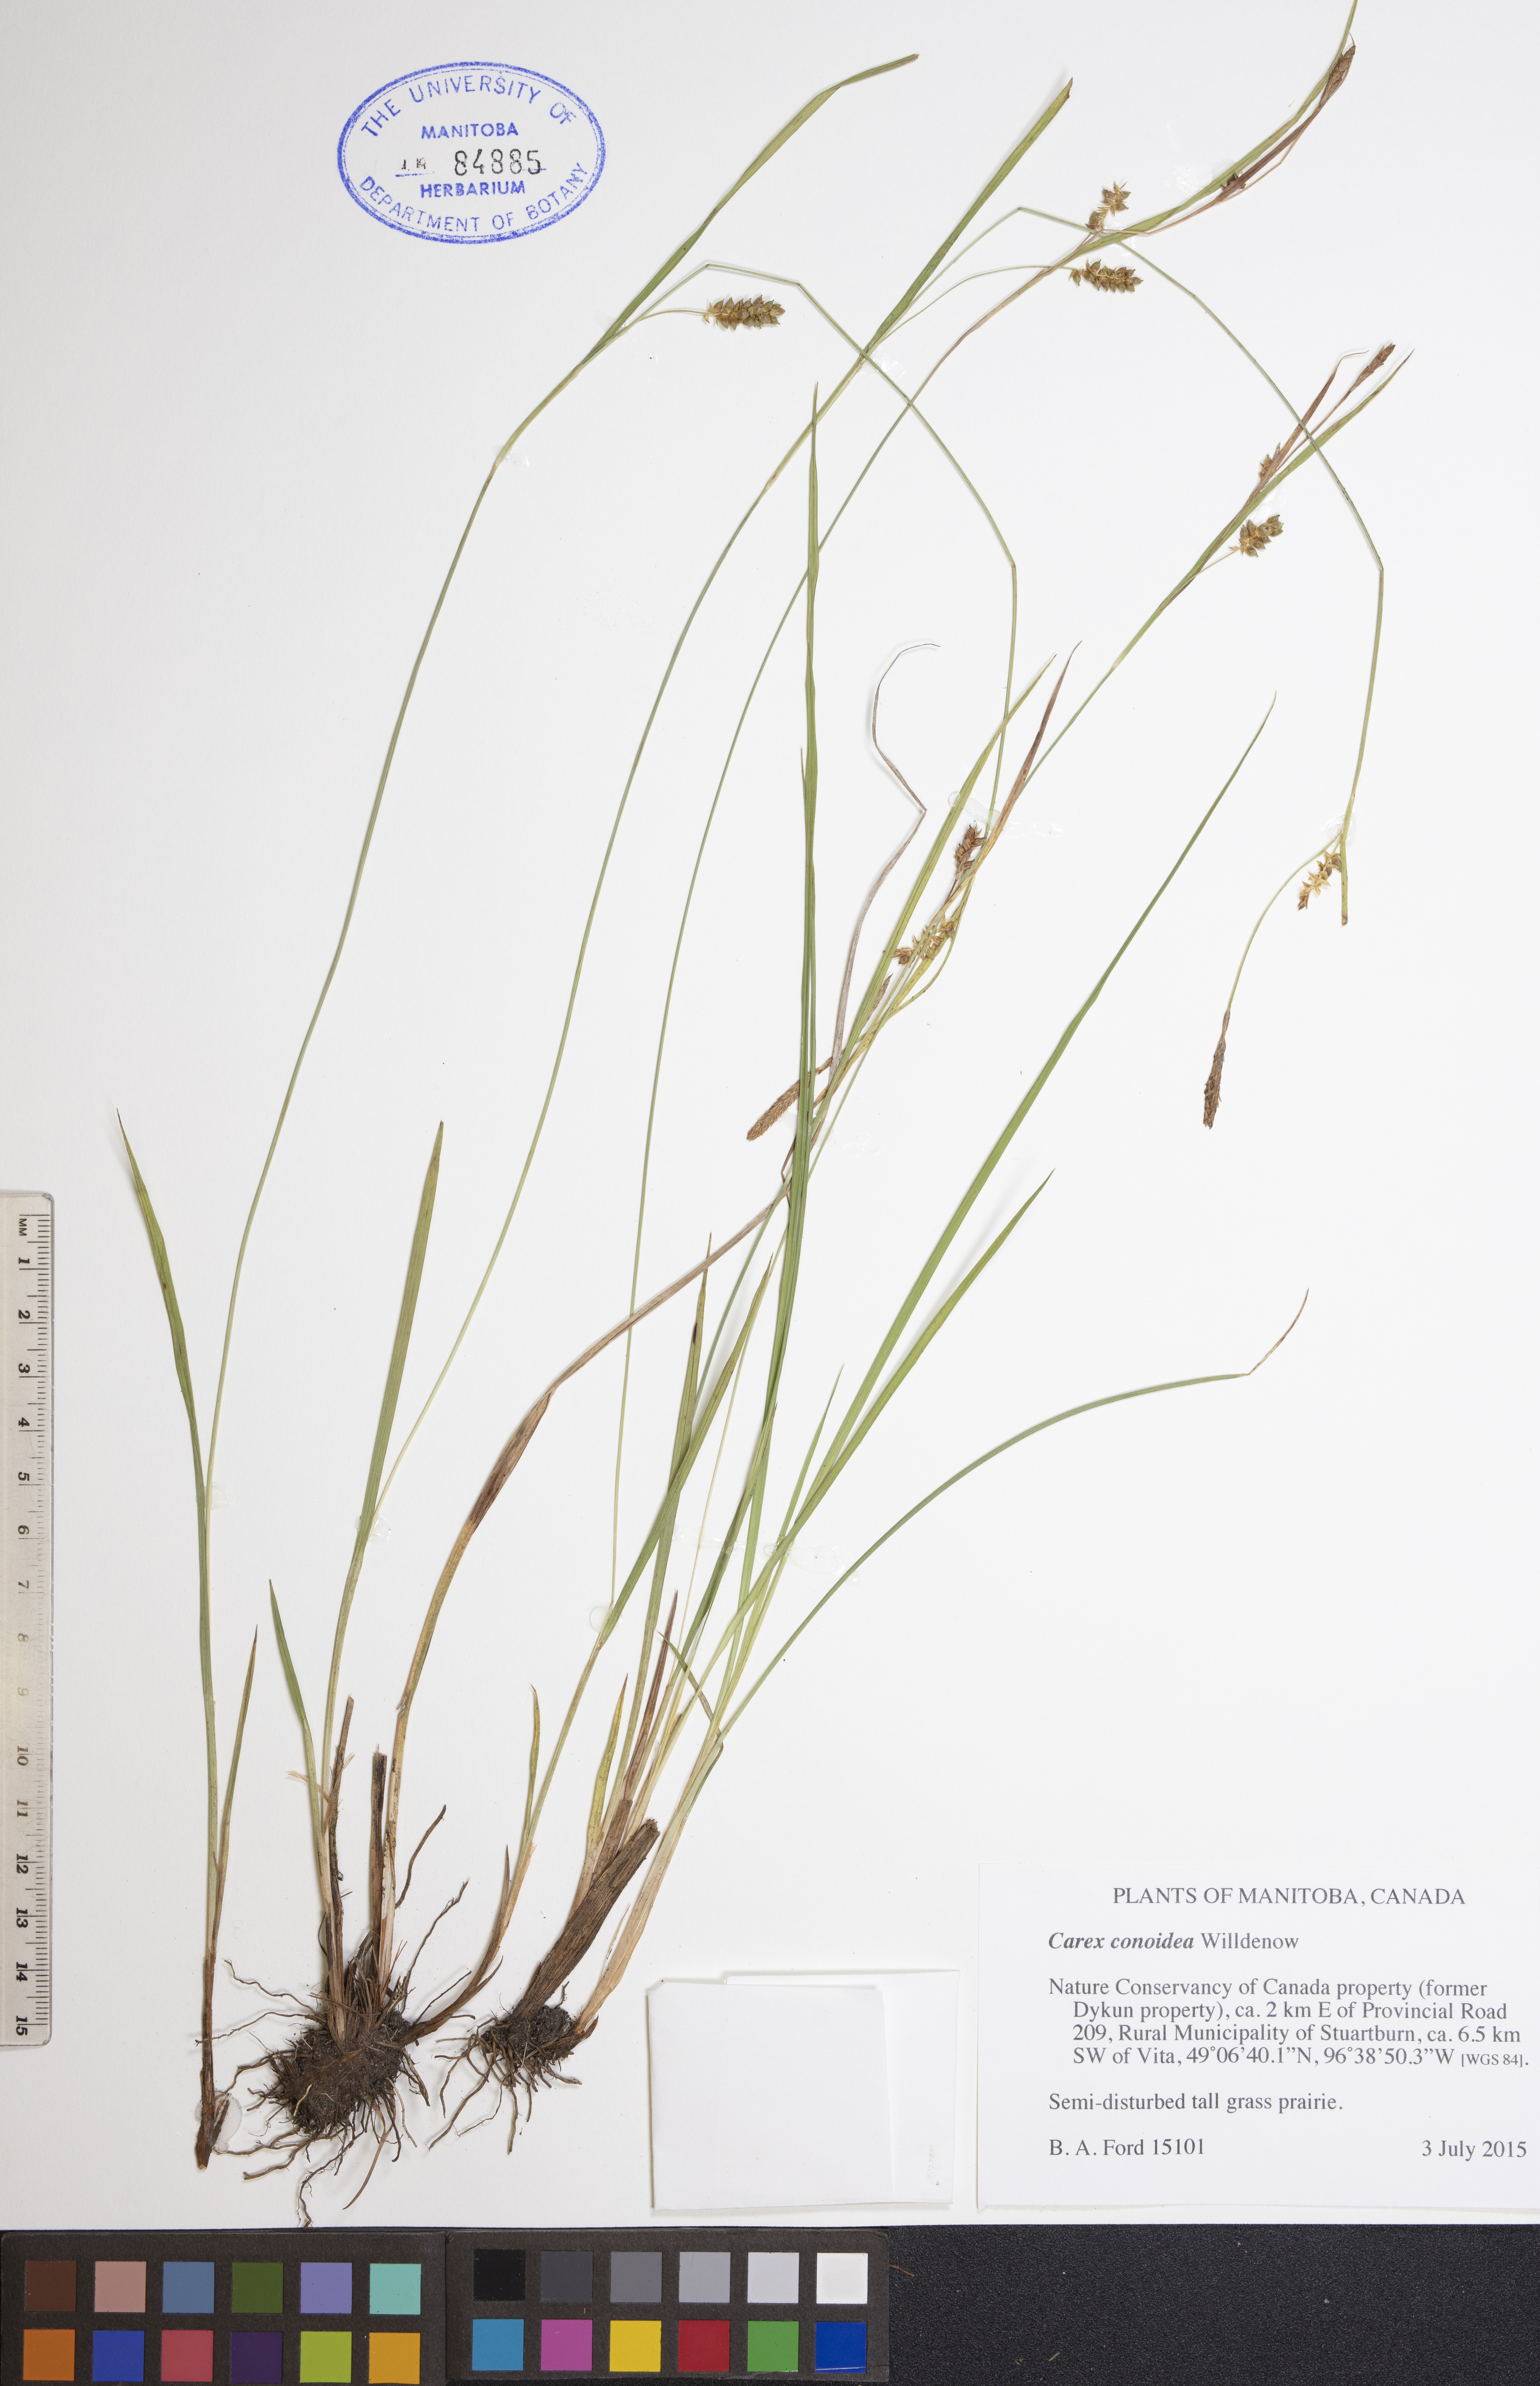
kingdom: Plantae
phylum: Tracheophyta
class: Liliopsida
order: Poales
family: Cyperaceae
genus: Carex
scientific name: Carex conoidea
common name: Cone shaped sedge
